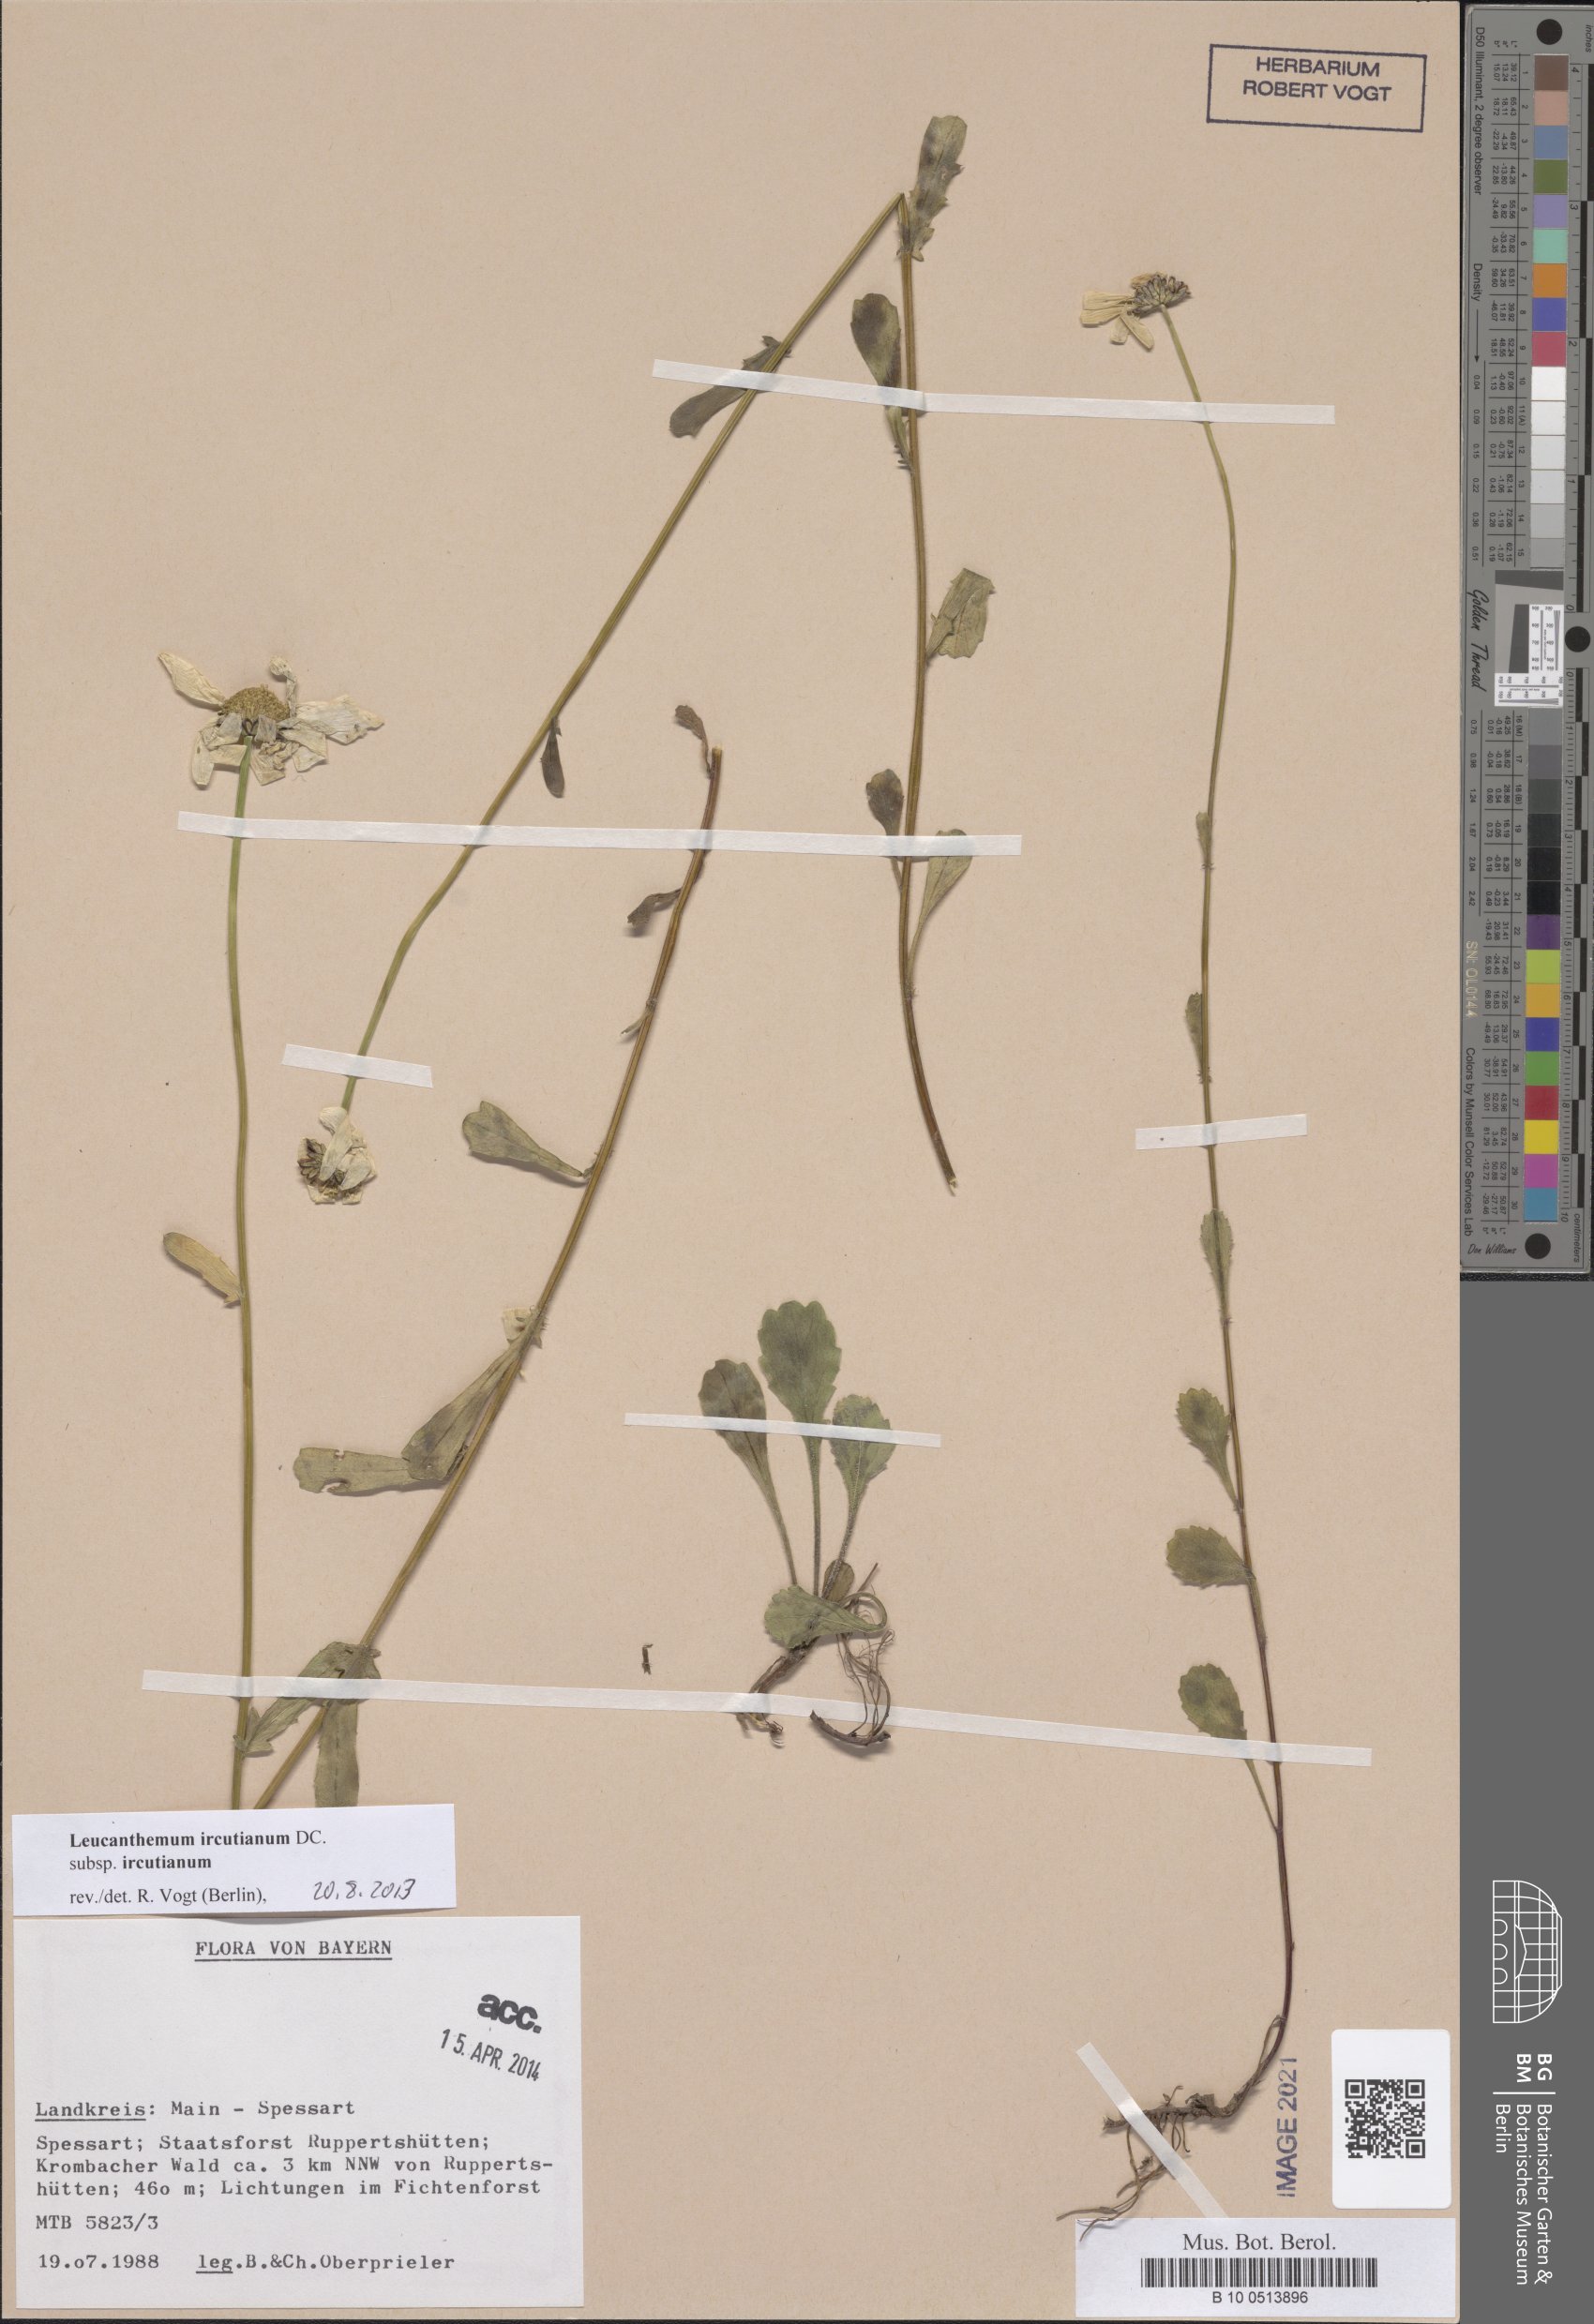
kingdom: Plantae
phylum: Tracheophyta
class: Magnoliopsida
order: Asterales
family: Asteraceae
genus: Leucanthemum
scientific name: Leucanthemum ircutianum
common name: Daisy
